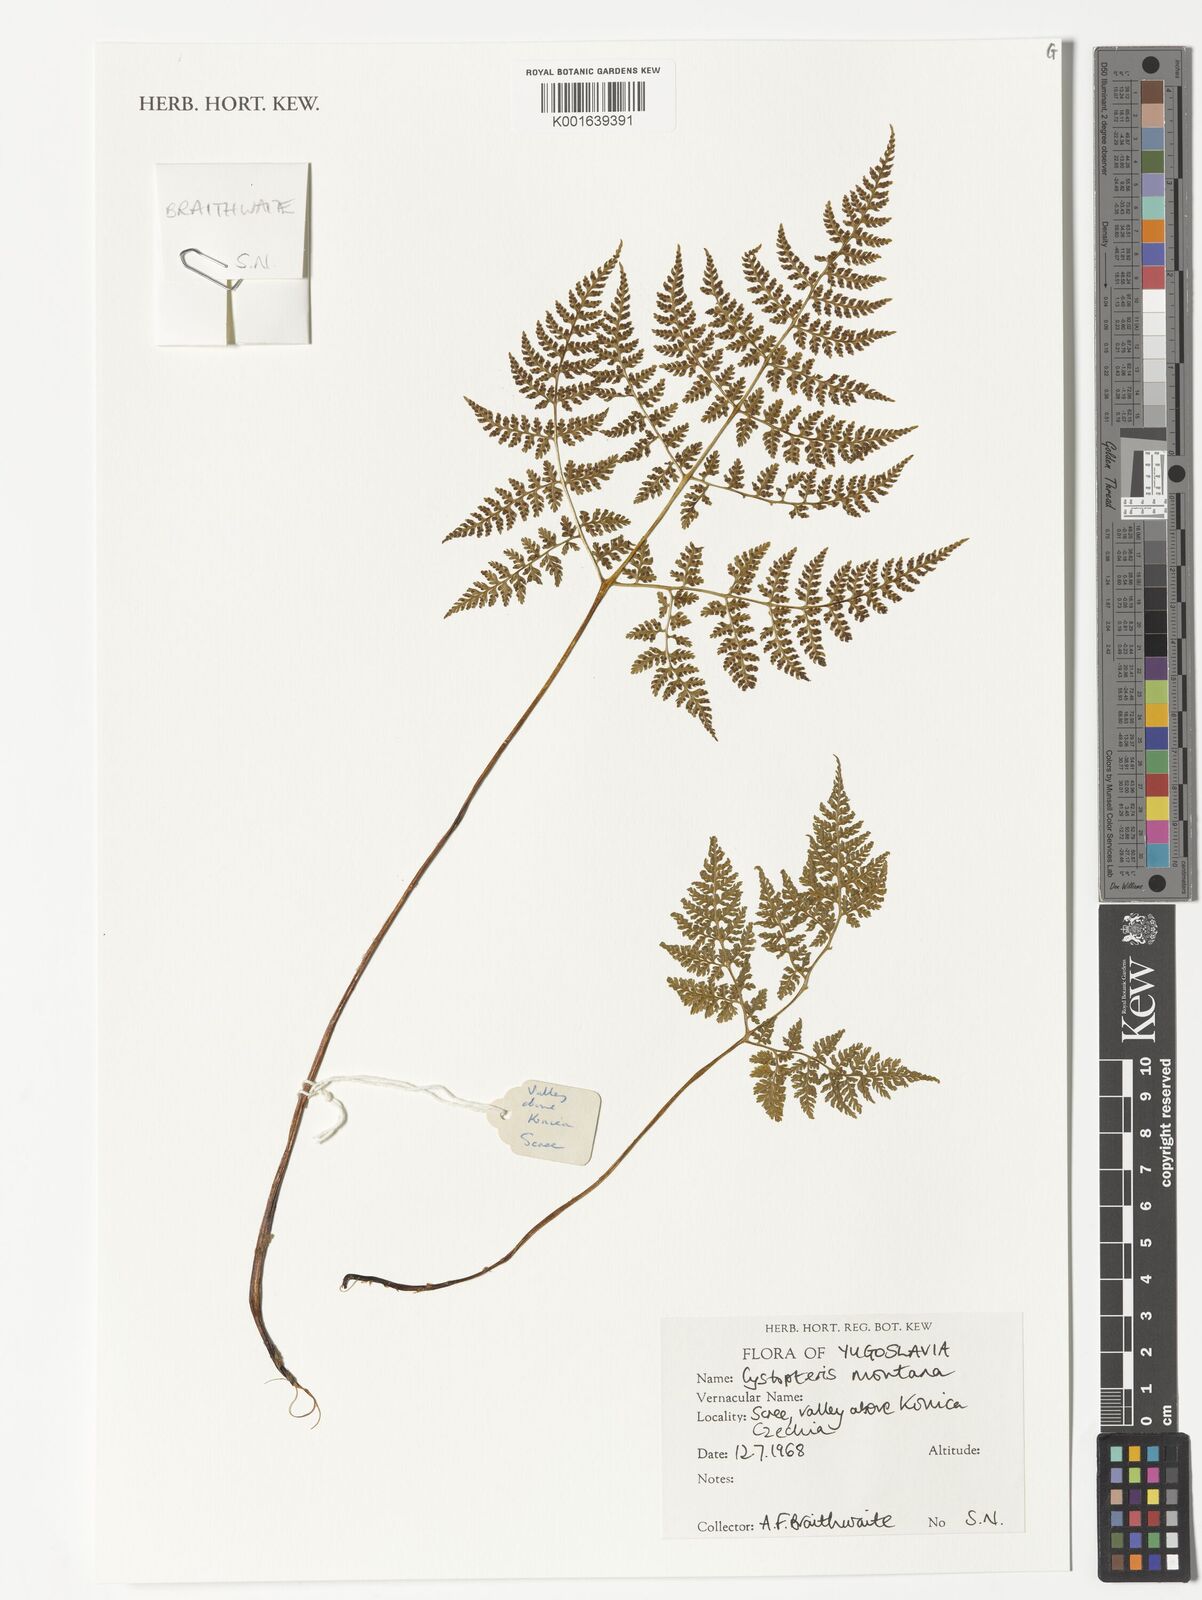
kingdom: Plantae
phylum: Tracheophyta
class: Polypodiopsida
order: Polypodiales
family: Cystopteridaceae
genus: Cystopteris
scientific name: Cystopteris montana
